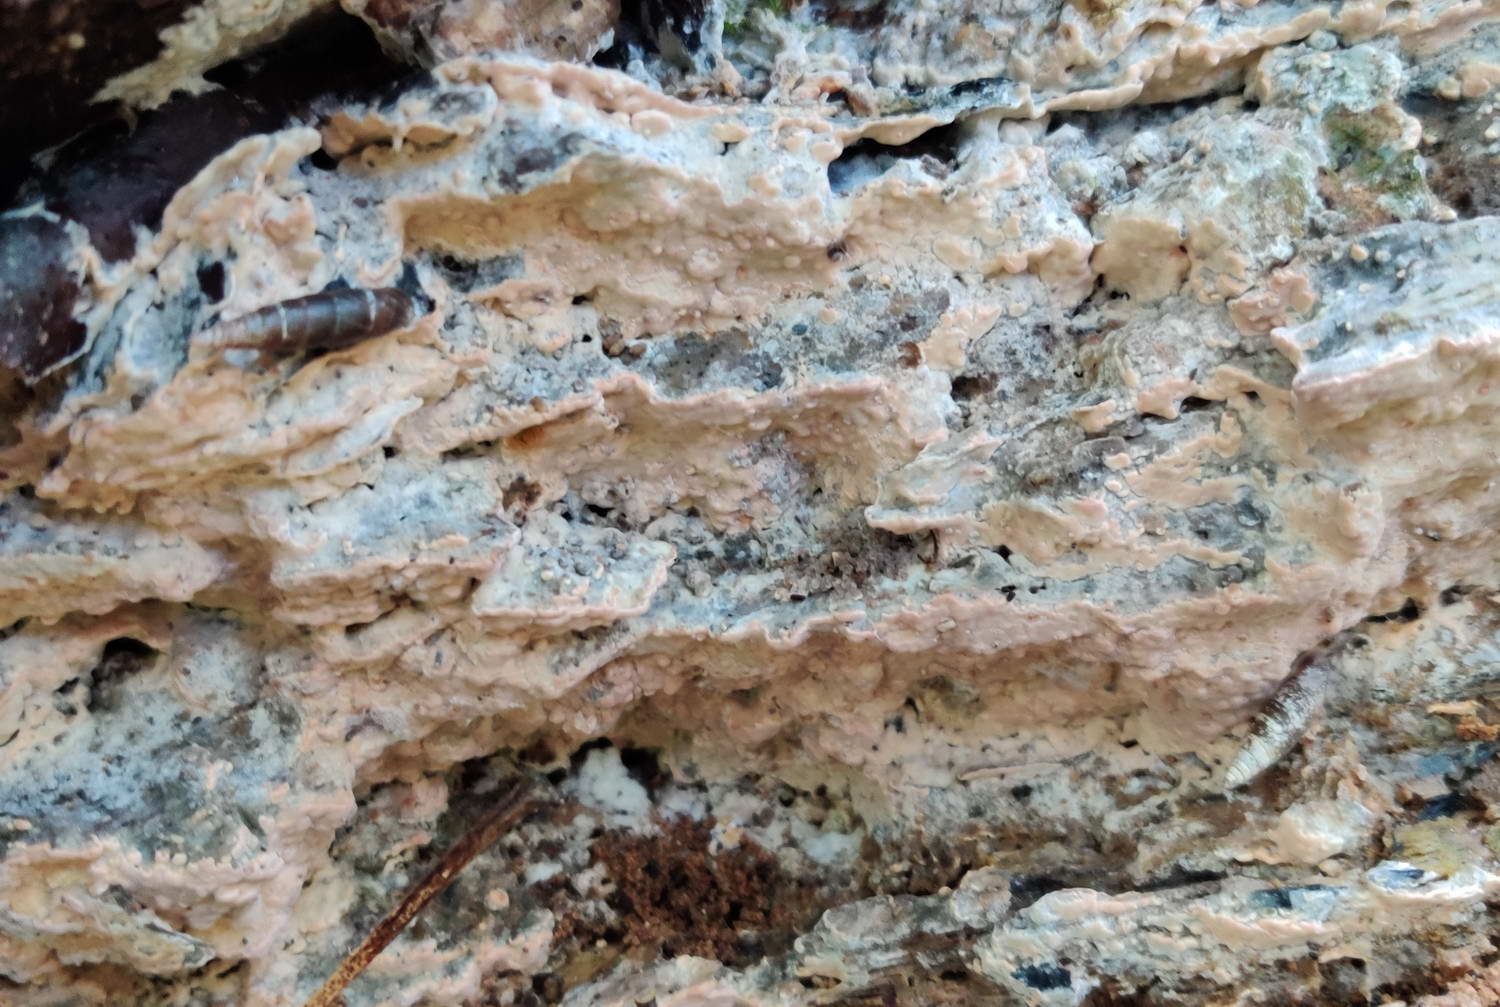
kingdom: Fungi
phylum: Basidiomycota
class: Agaricomycetes
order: Russulales
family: Peniophoraceae
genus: Gloiothele
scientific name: Gloiothele lactescens
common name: bitter olieskind
